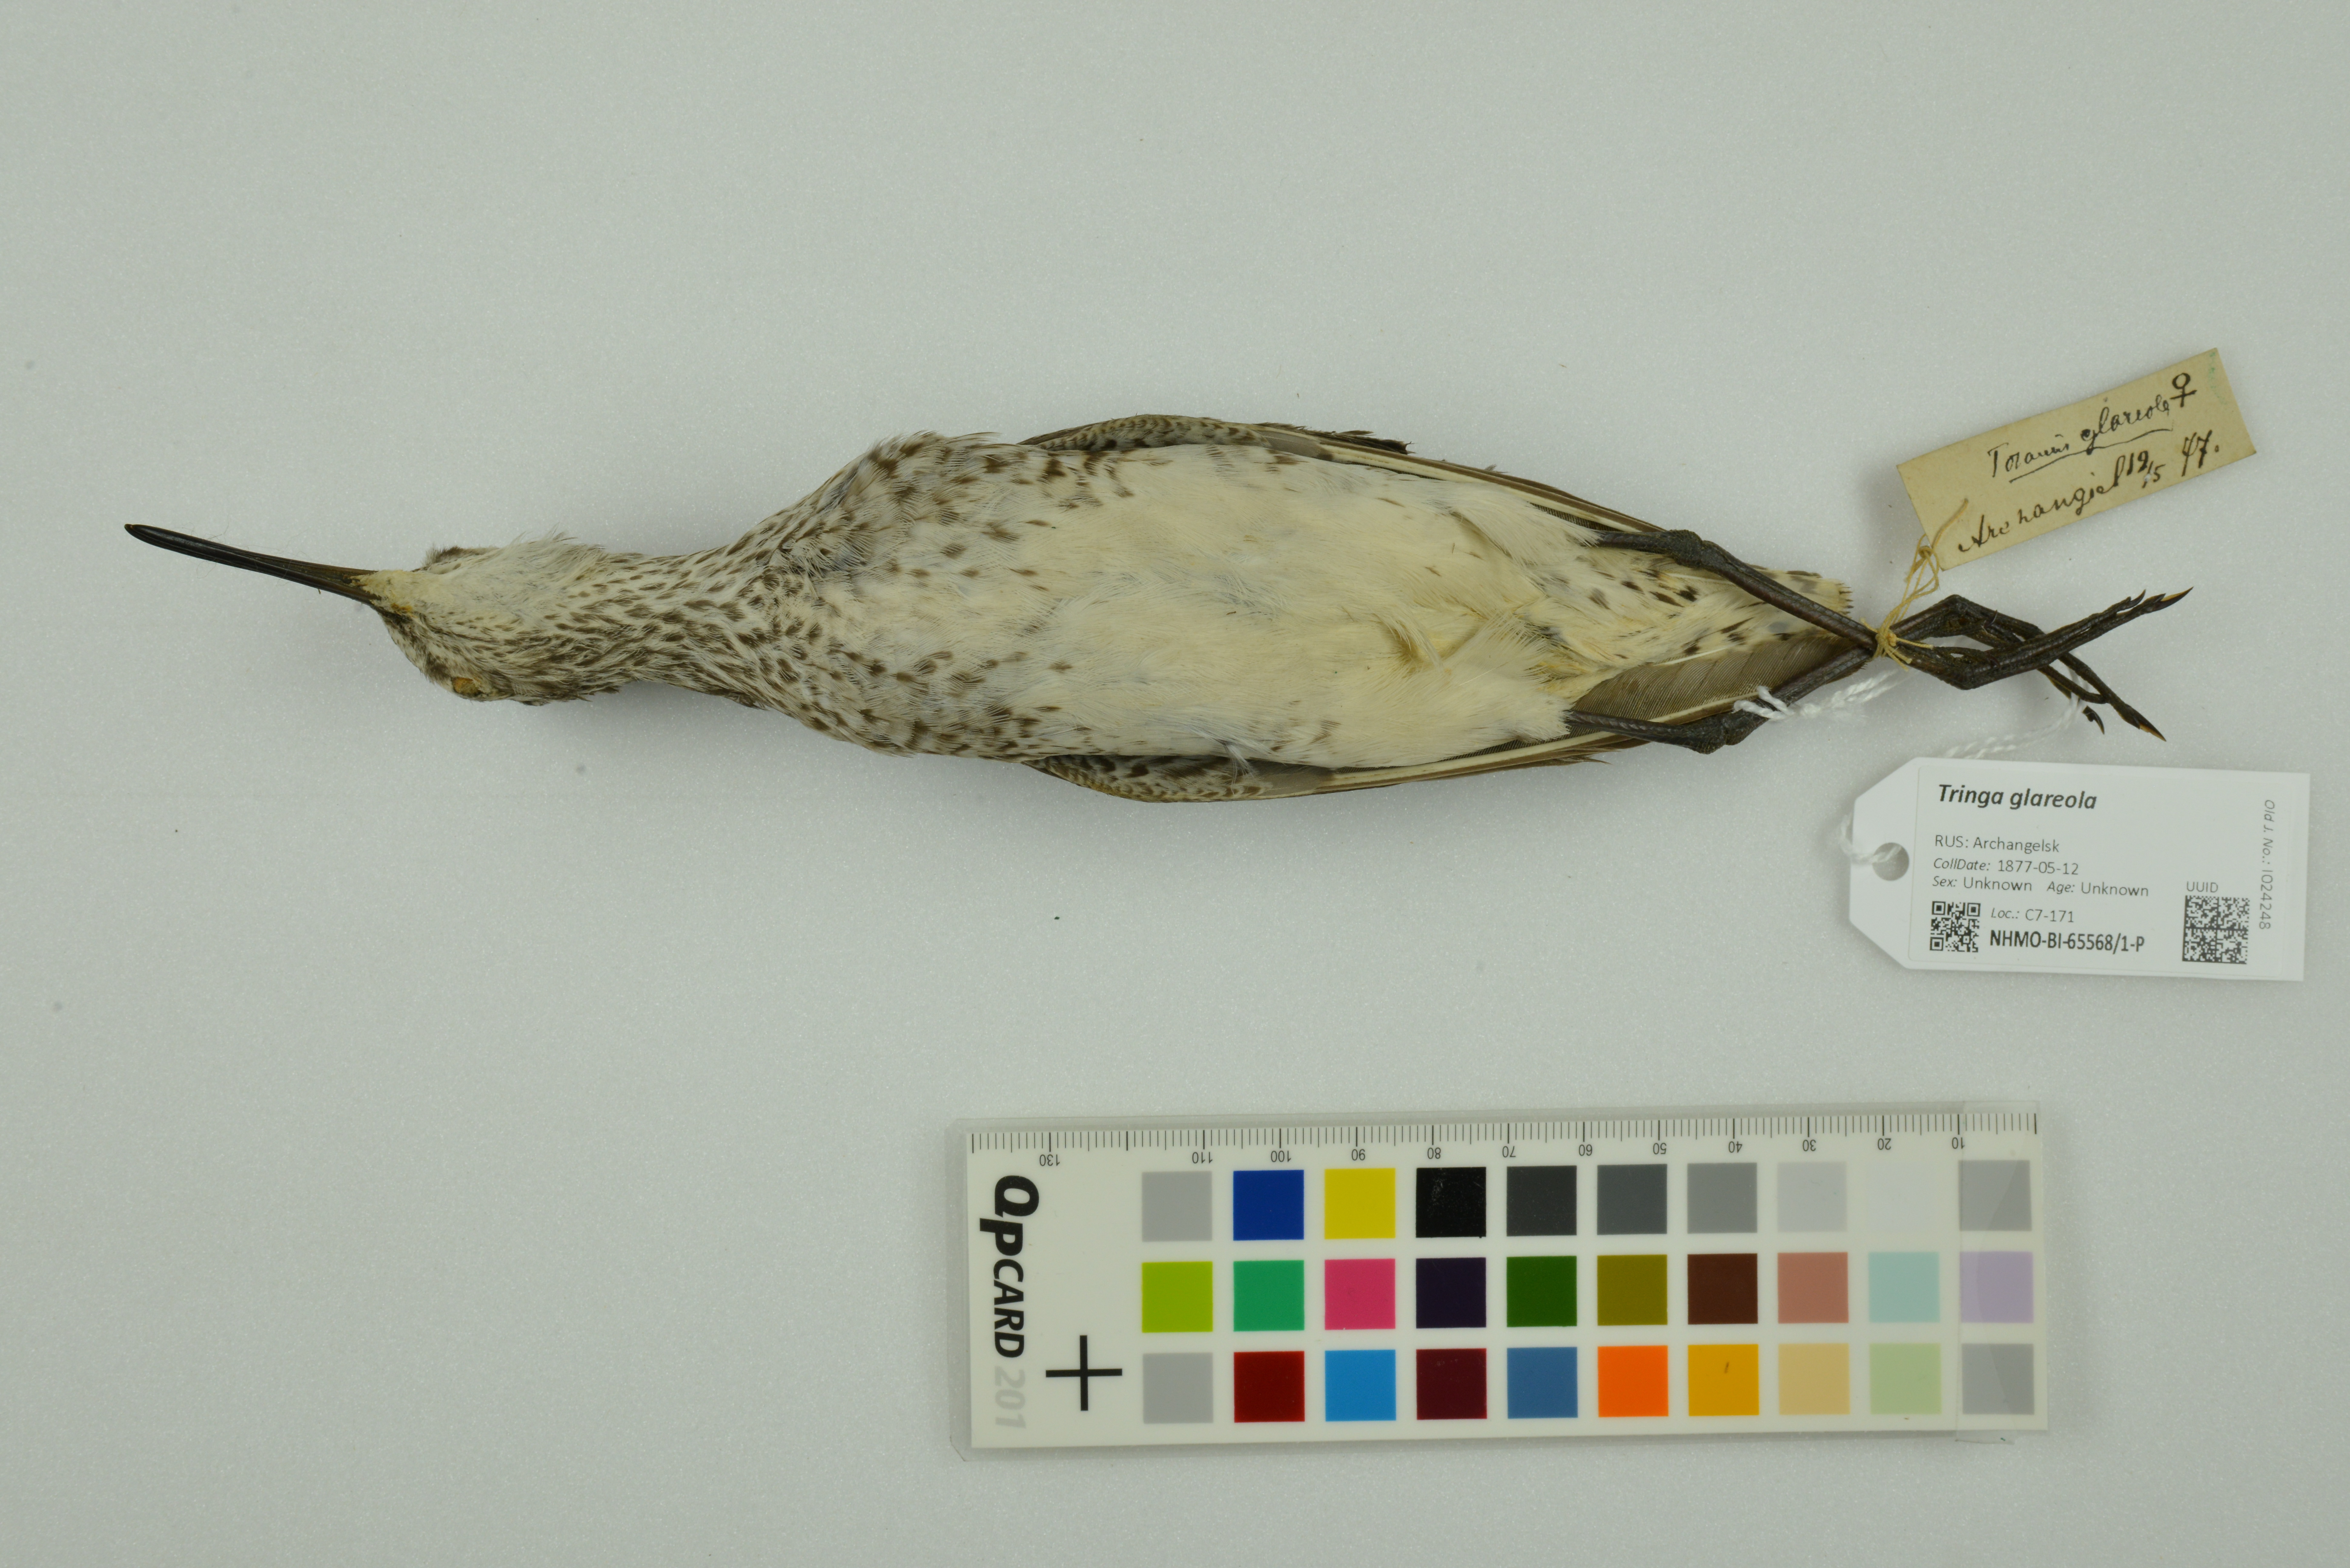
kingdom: Animalia
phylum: Chordata
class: Aves
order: Charadriiformes
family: Scolopacidae
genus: Tringa
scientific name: Tringa glareola
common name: Wood sandpiper
